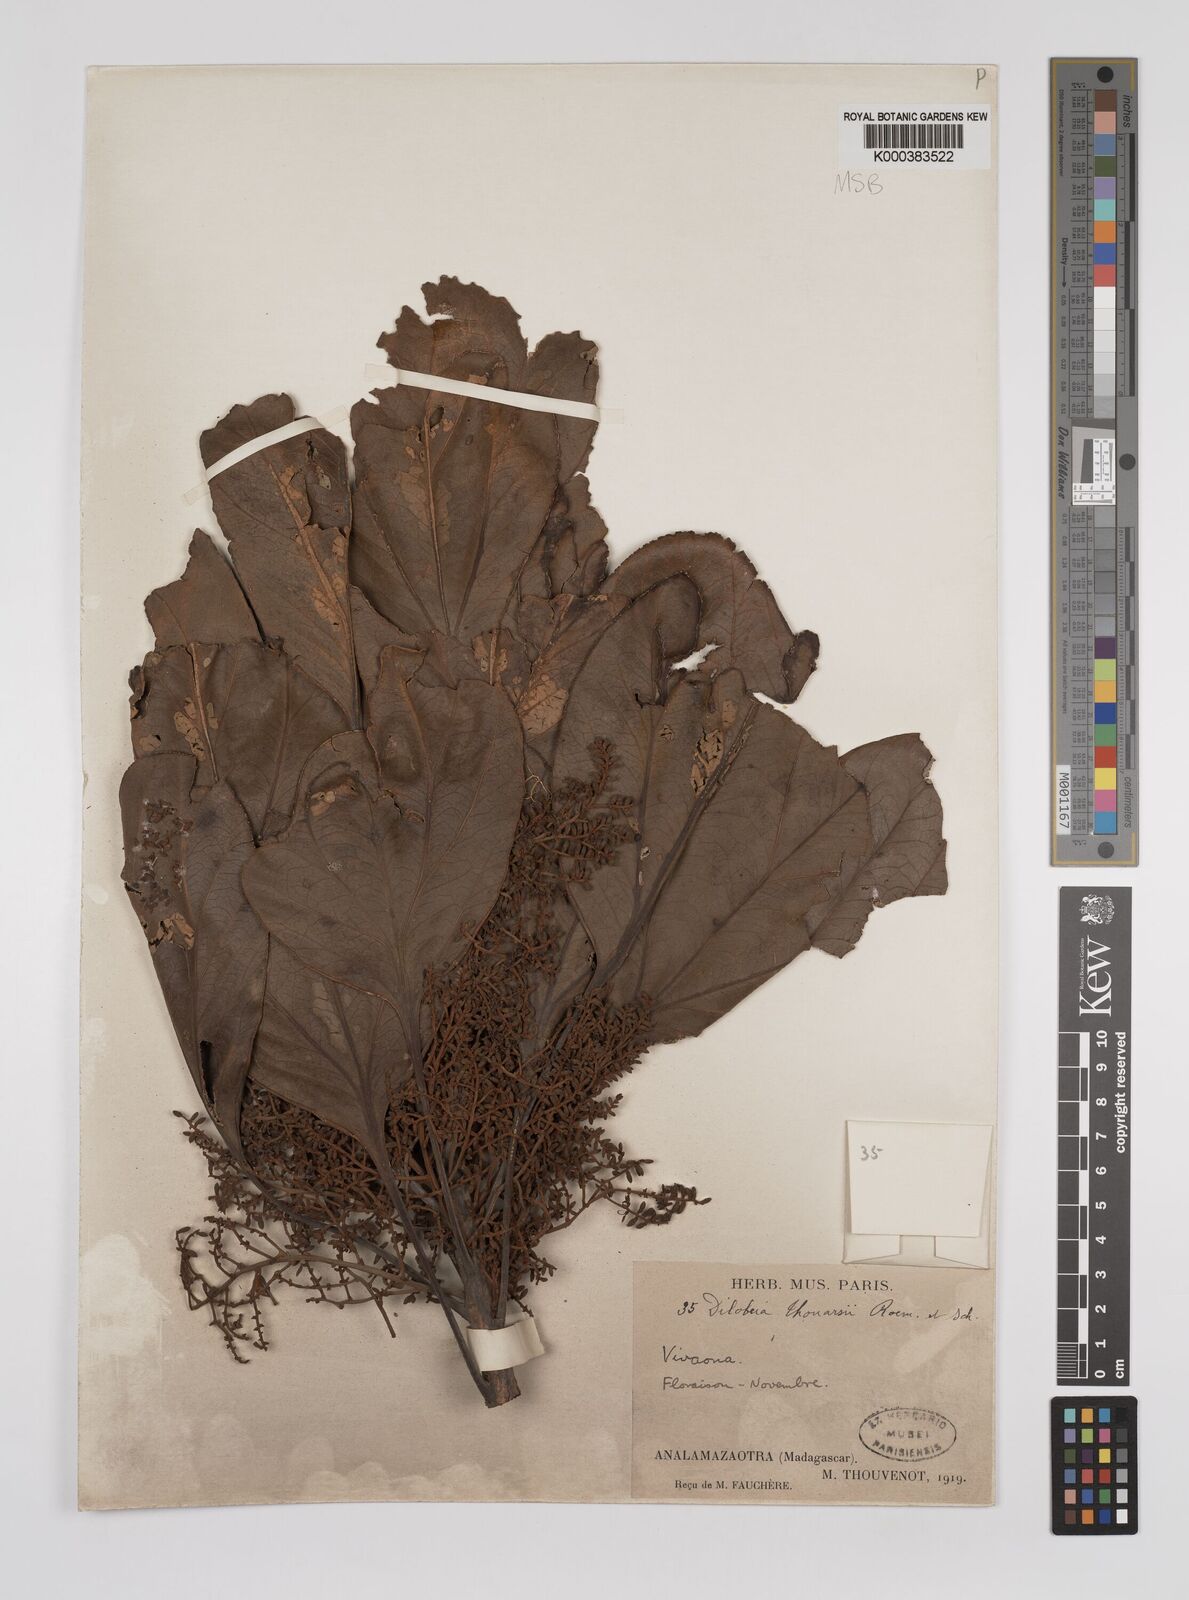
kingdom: Plantae
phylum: Tracheophyta
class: Magnoliopsida
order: Proteales
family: Proteaceae
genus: Dilobeia
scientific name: Dilobeia thouarsii
